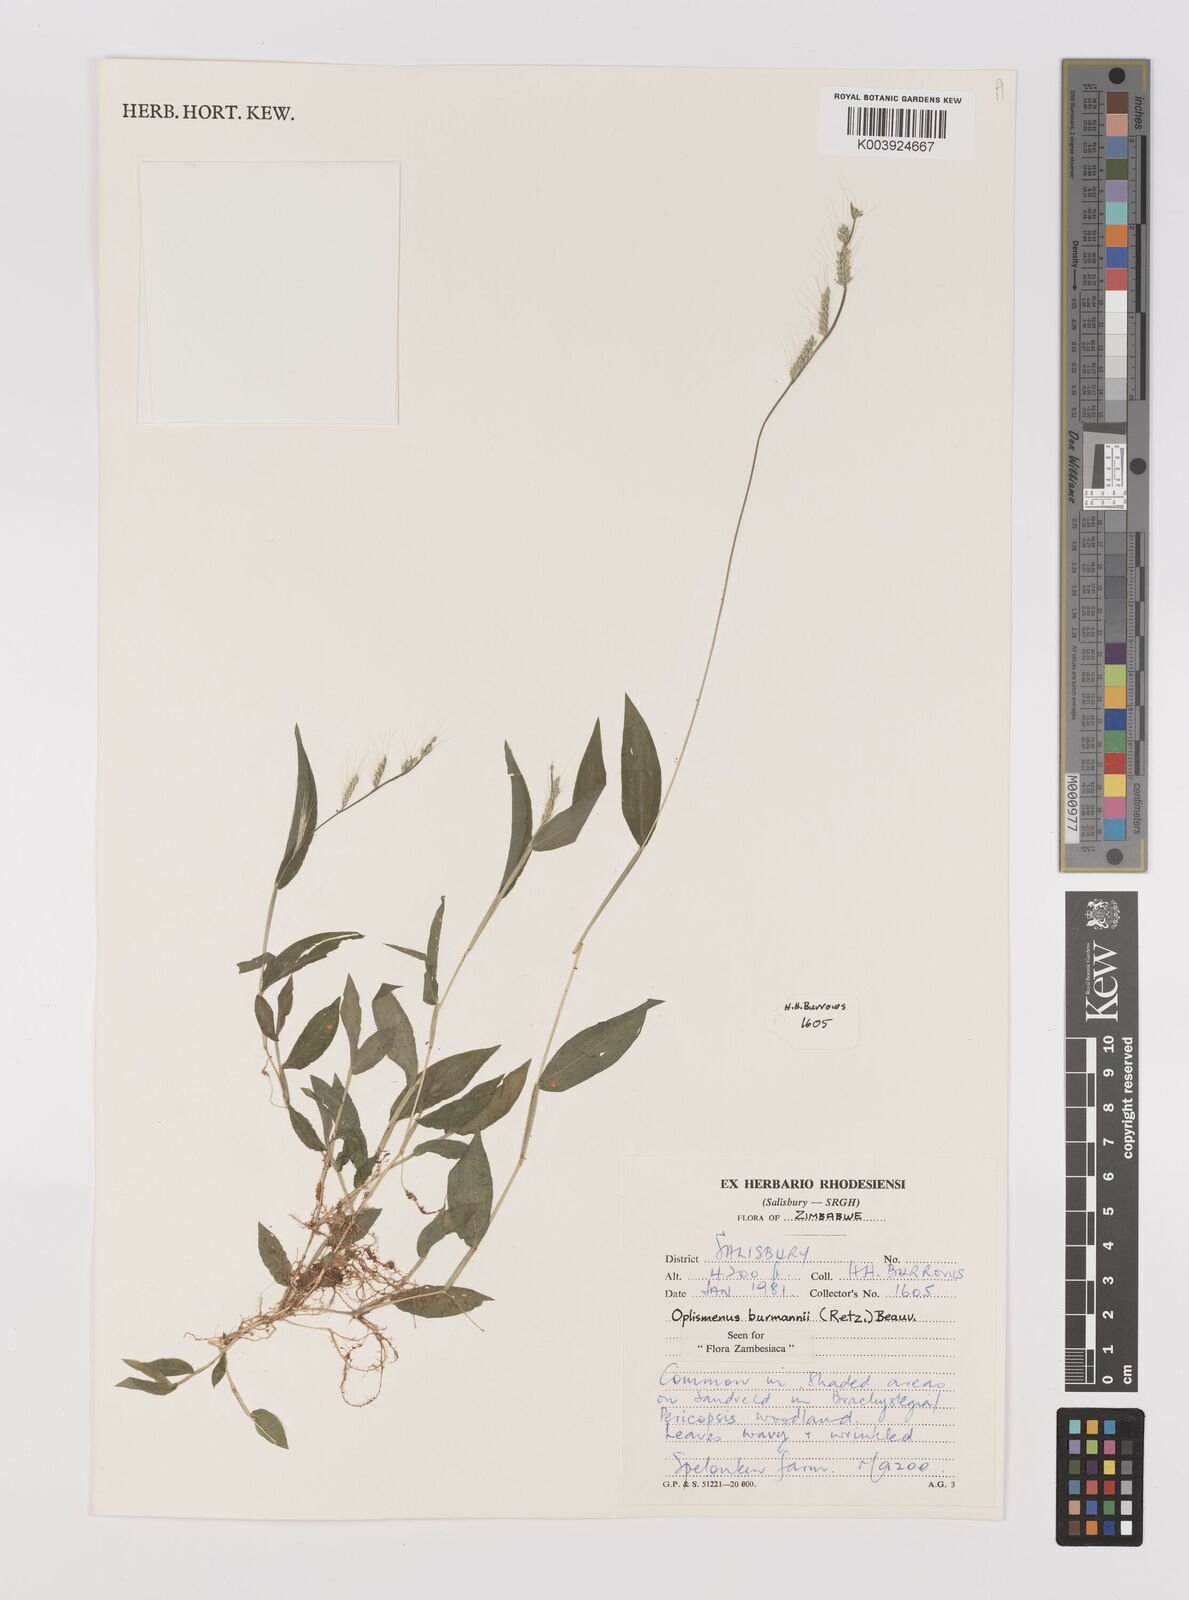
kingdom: Plantae
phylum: Tracheophyta
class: Liliopsida
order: Poales
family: Poaceae
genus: Oplismenus
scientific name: Oplismenus burmanni
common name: Burmann's basketgrass
